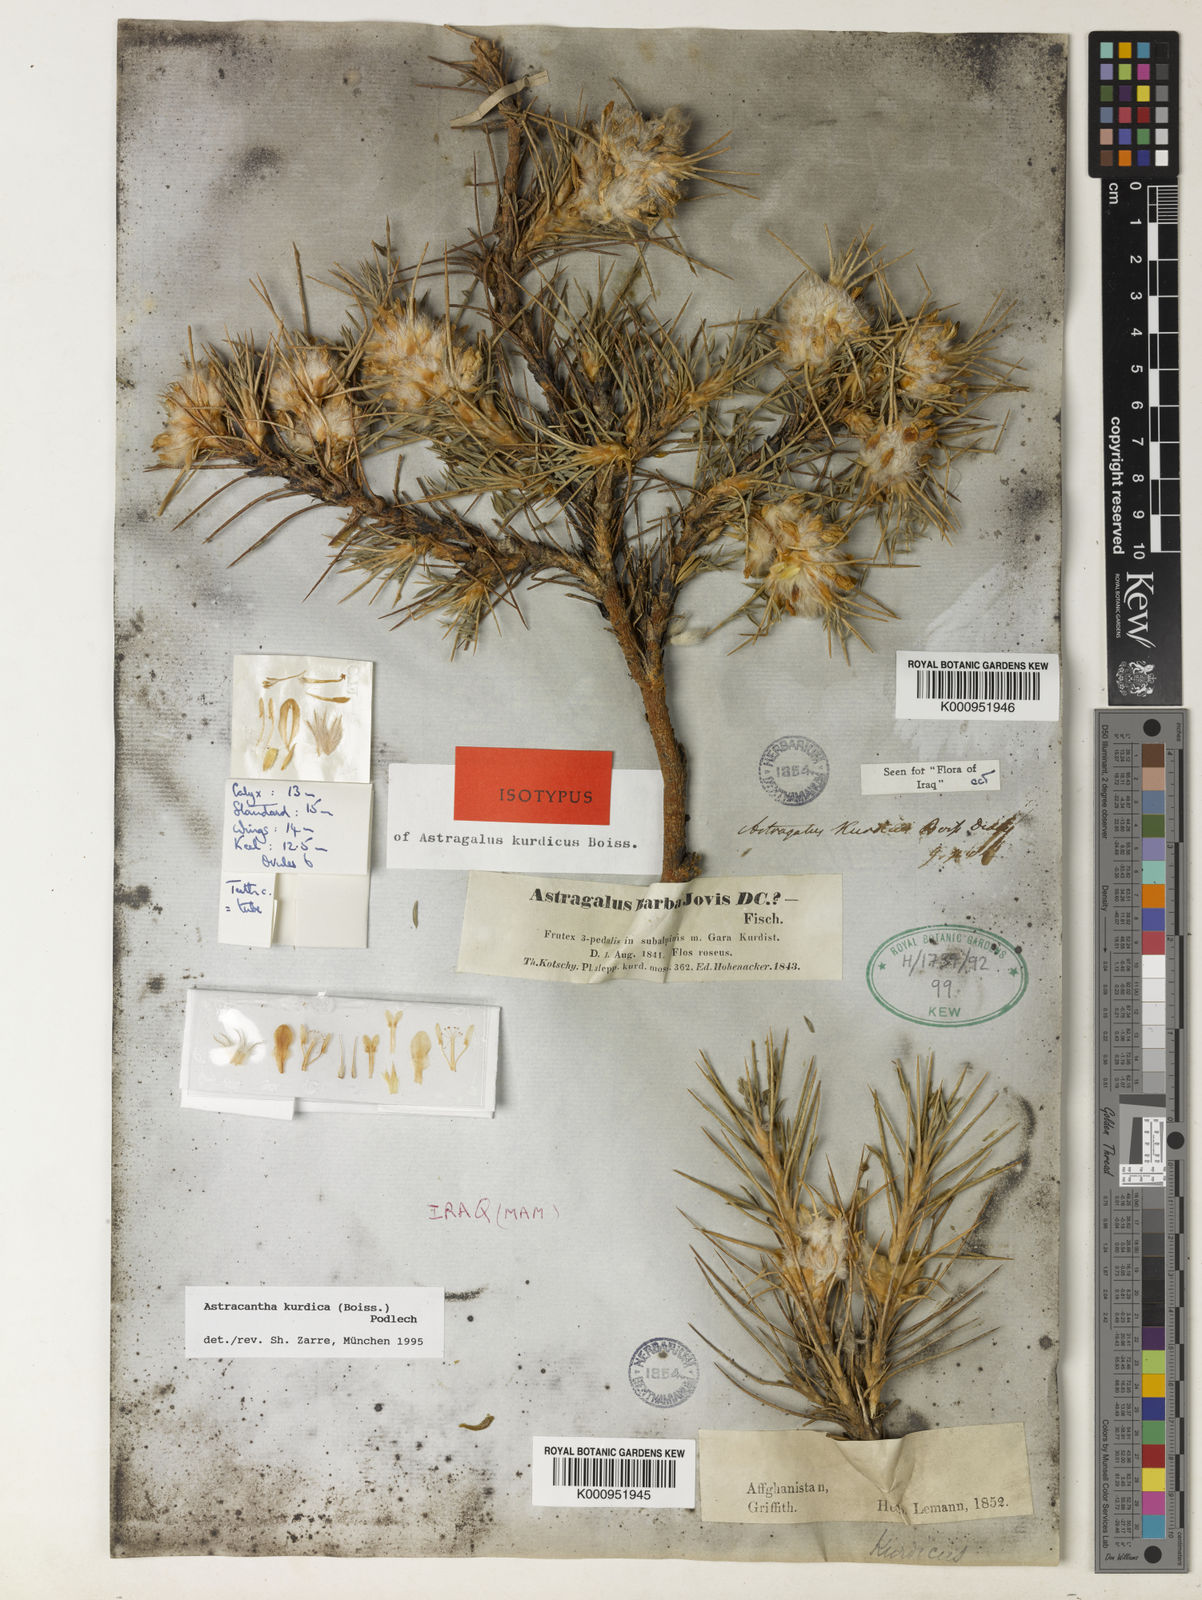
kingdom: Plantae
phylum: Tracheophyta
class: Magnoliopsida
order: Fabales
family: Fabaceae
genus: Astragalus
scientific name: Astragalus kurdicus
